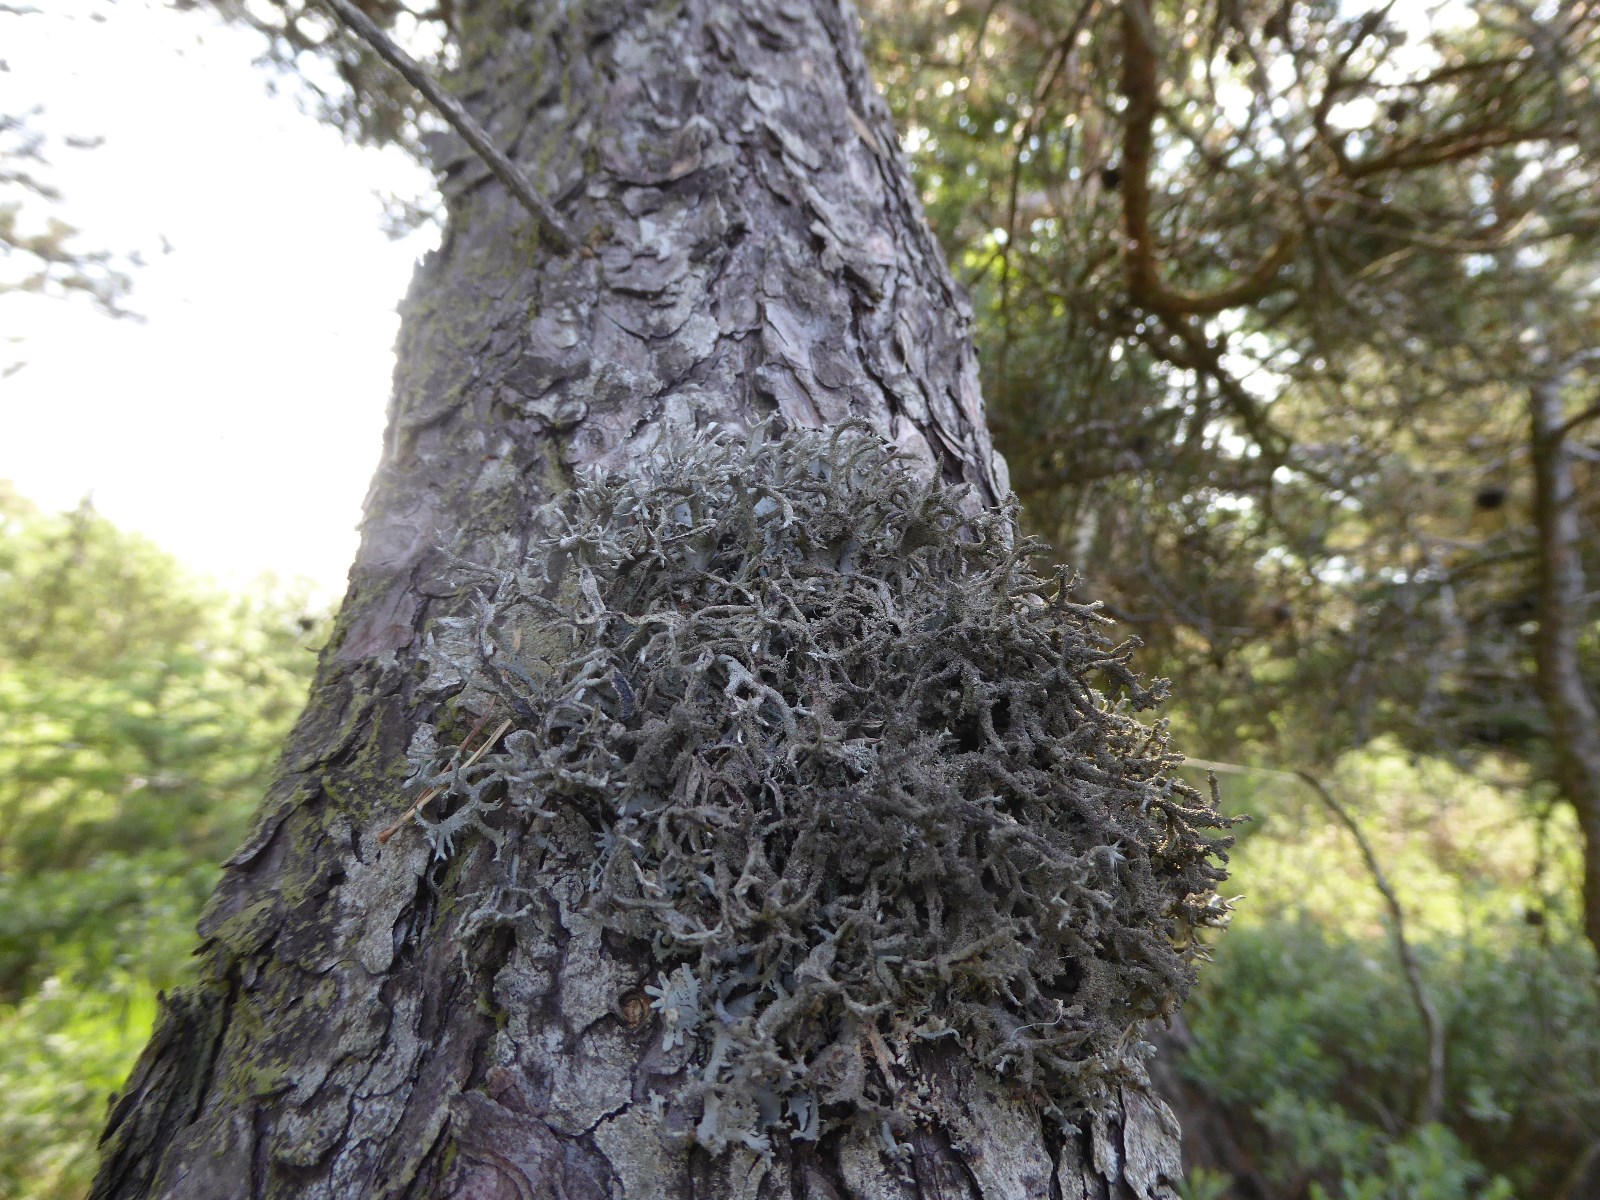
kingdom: Fungi
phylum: Ascomycota
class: Lecanoromycetes
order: Lecanorales
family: Parmeliaceae
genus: Pseudevernia
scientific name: Pseudevernia furfuracea
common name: grå fyrrelav
